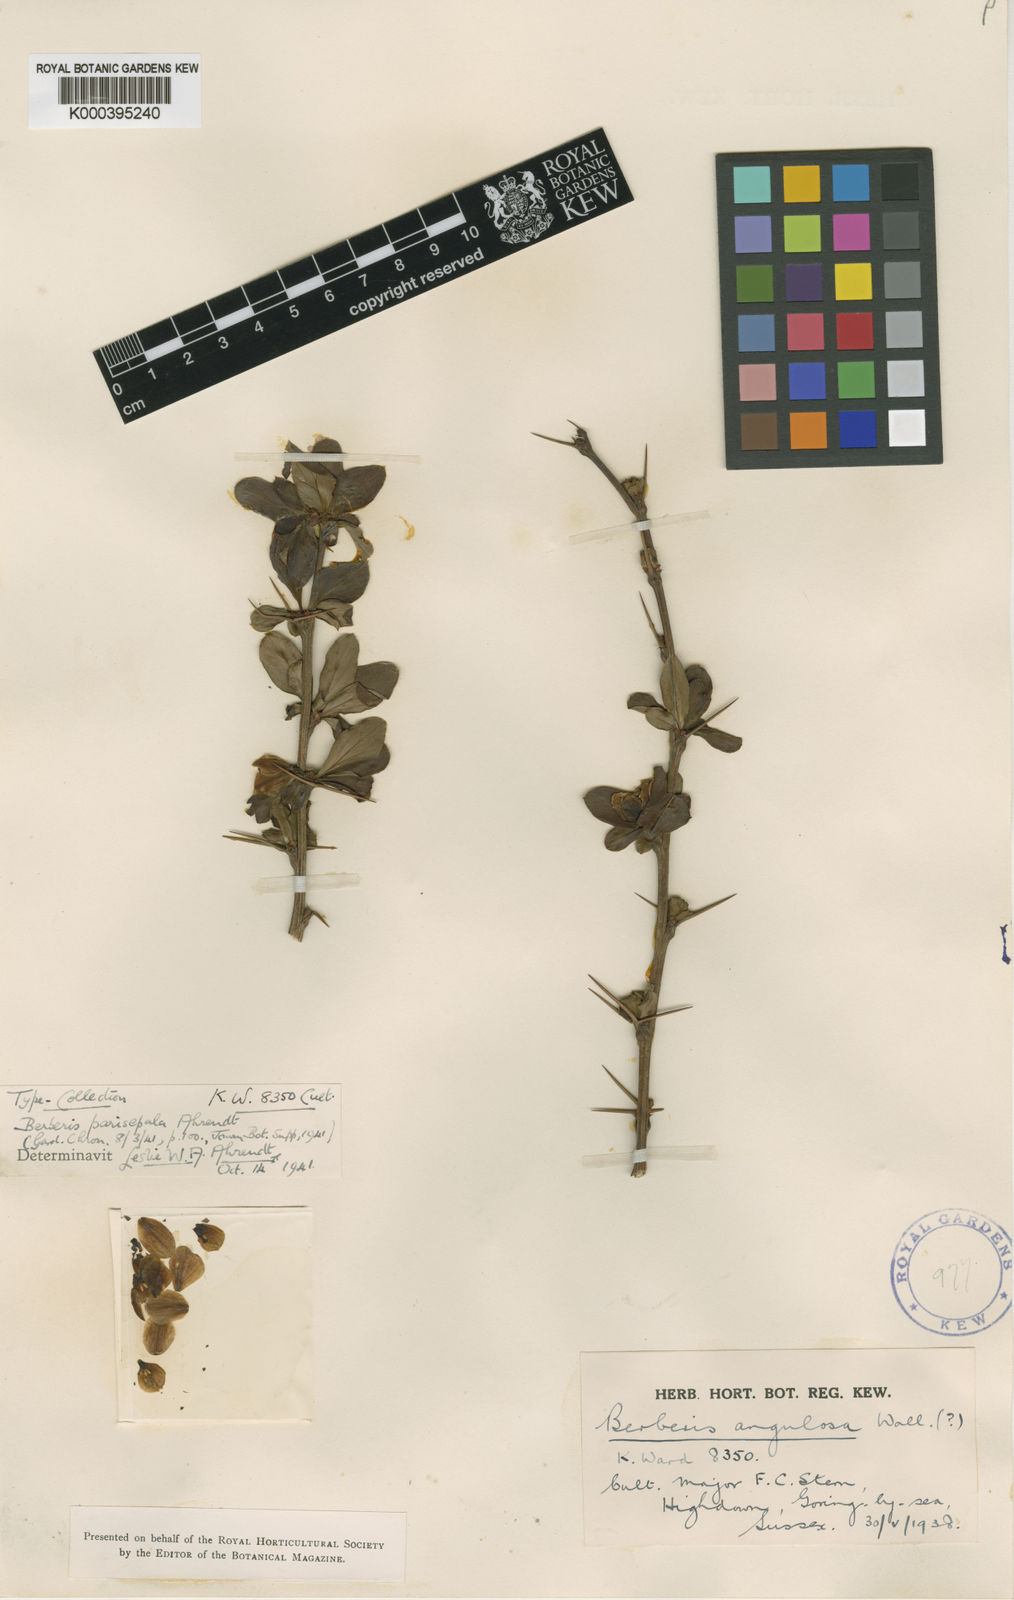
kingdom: Plantae
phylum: Tracheophyta
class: Magnoliopsida
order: Ranunculales
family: Berberidaceae
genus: Berberis
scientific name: Berberis angulosa
